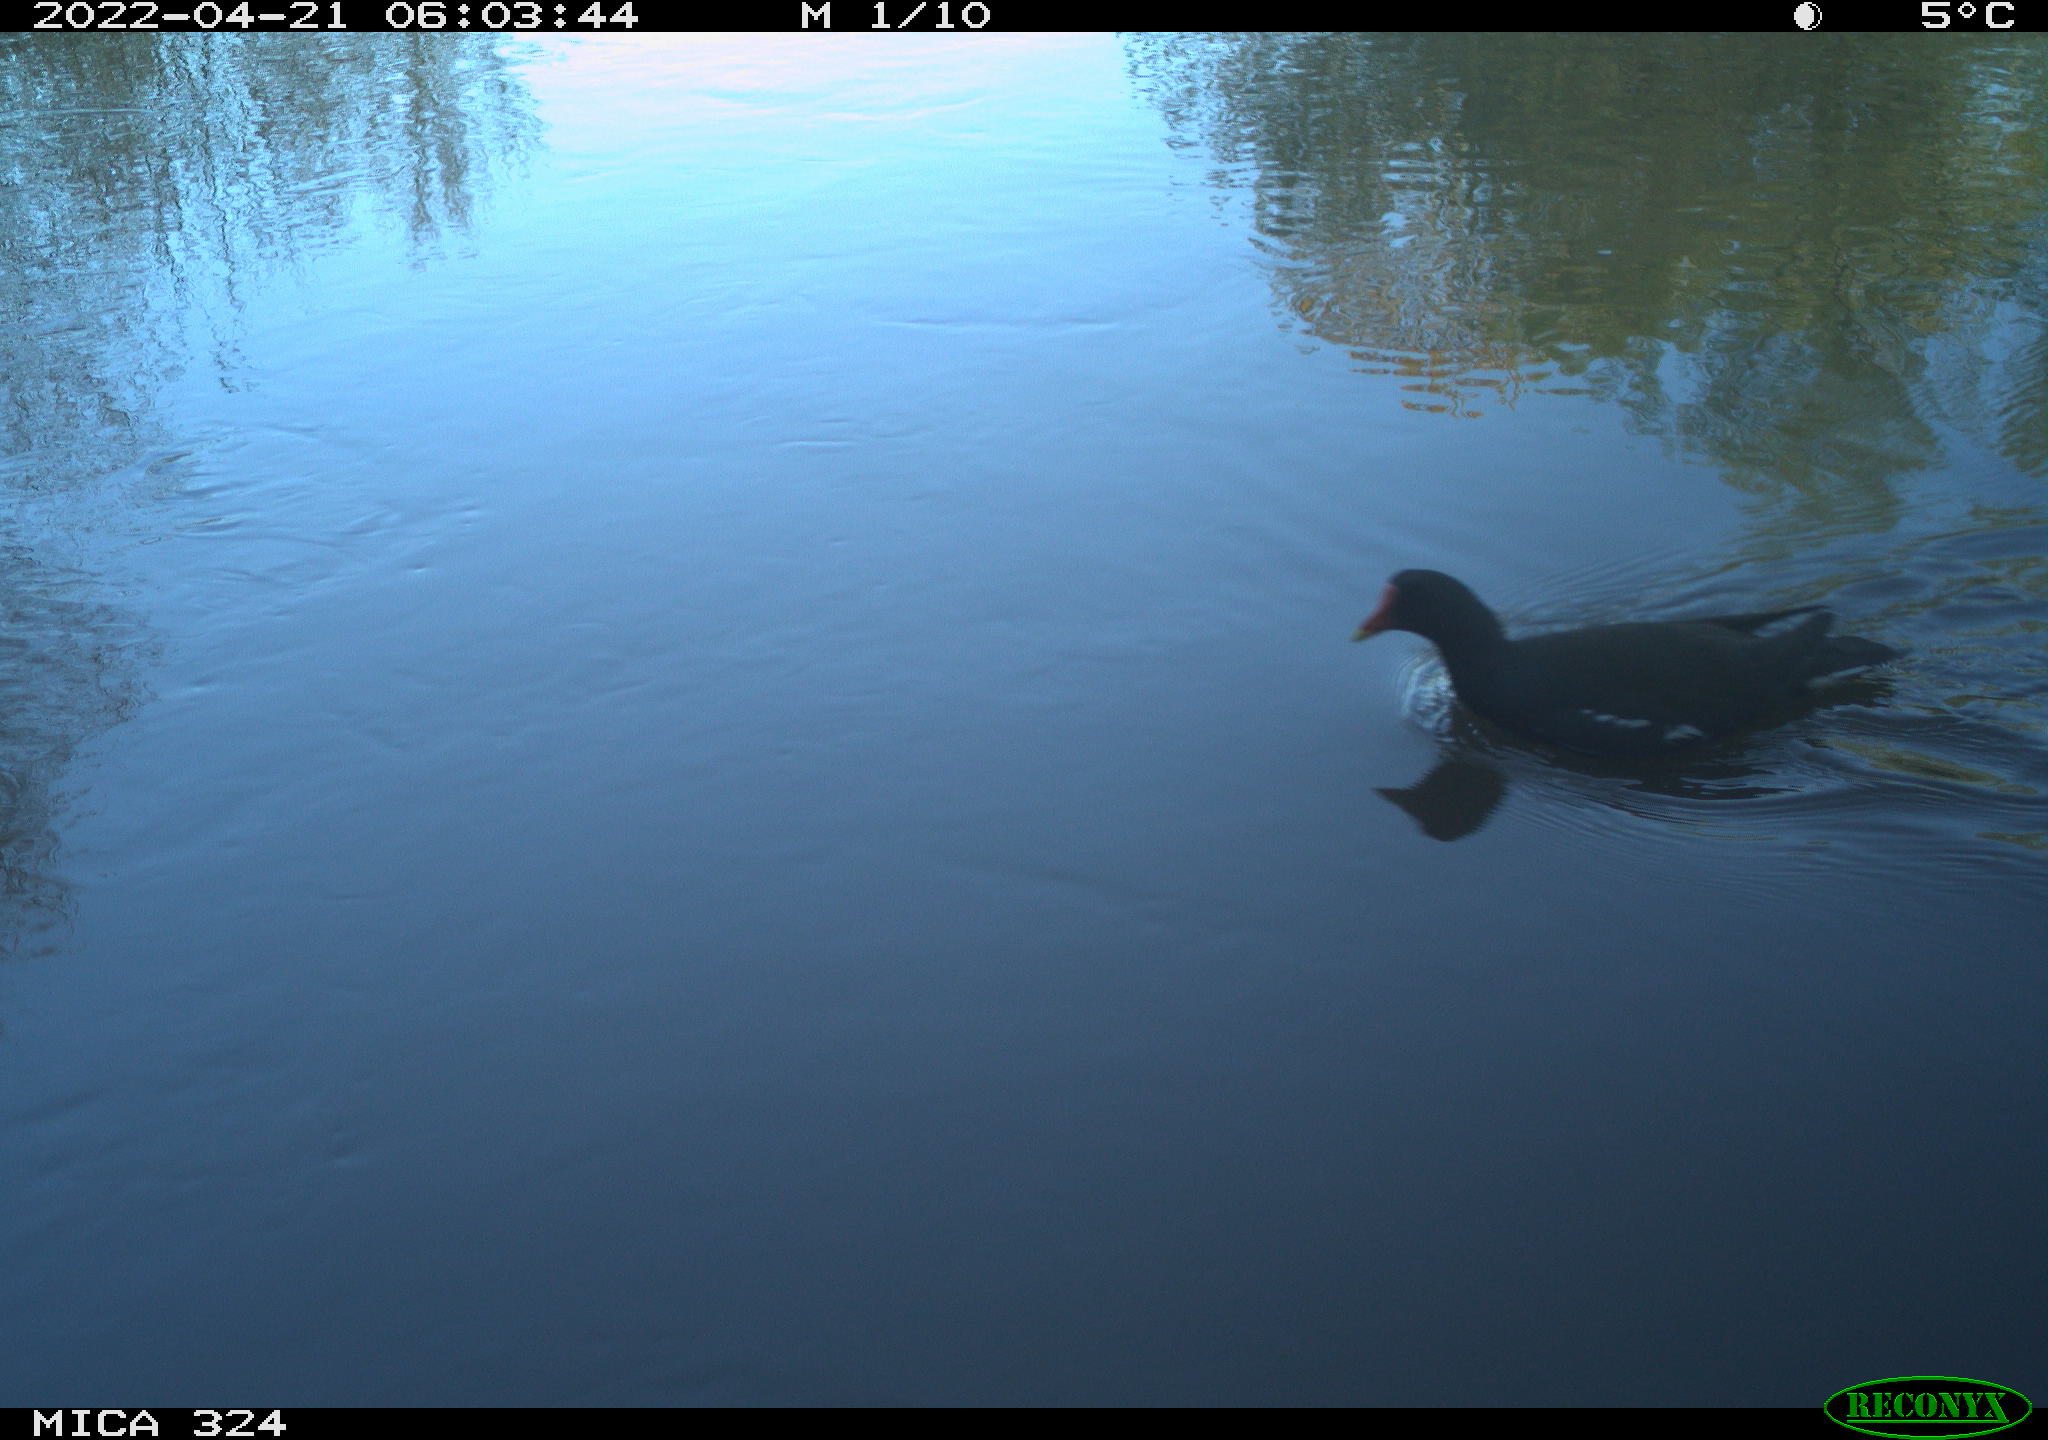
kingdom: Animalia
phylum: Chordata
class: Aves
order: Gruiformes
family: Rallidae
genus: Gallinula
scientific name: Gallinula chloropus
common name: Common moorhen
